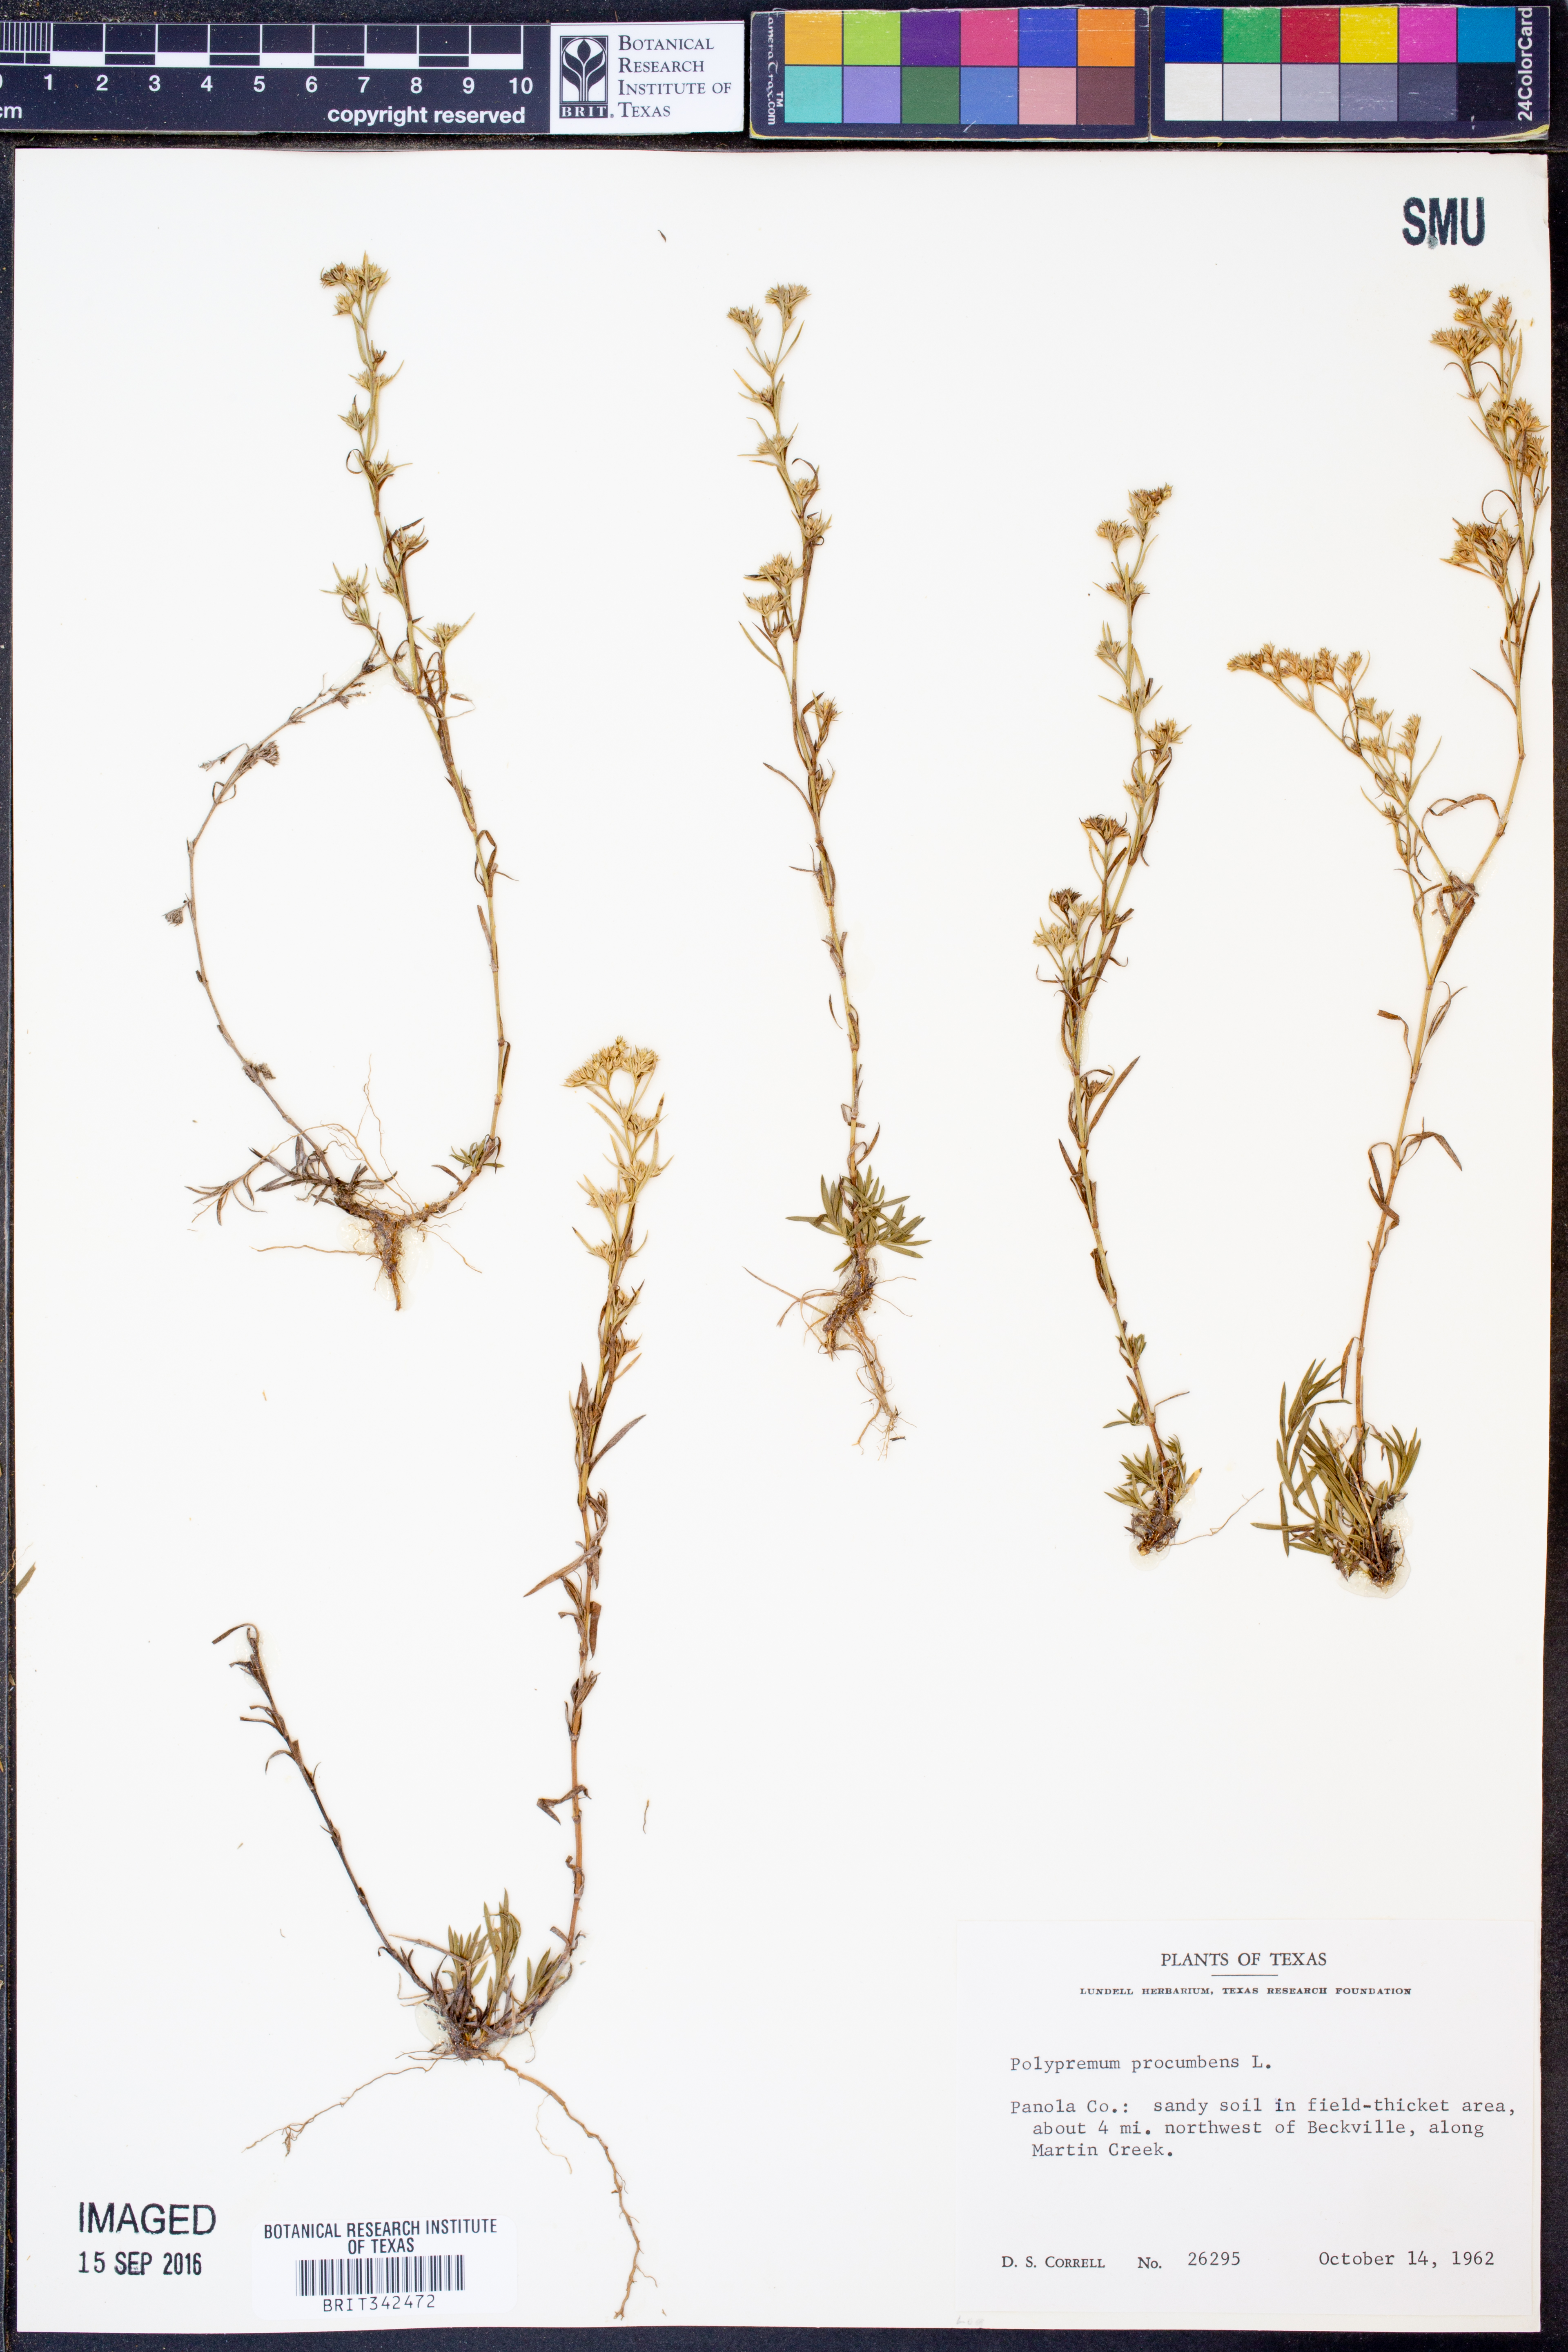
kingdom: Plantae
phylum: Tracheophyta
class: Magnoliopsida
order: Lamiales
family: Tetrachondraceae
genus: Polypremum
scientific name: Polypremum procumbens
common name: Juniper-leaf
